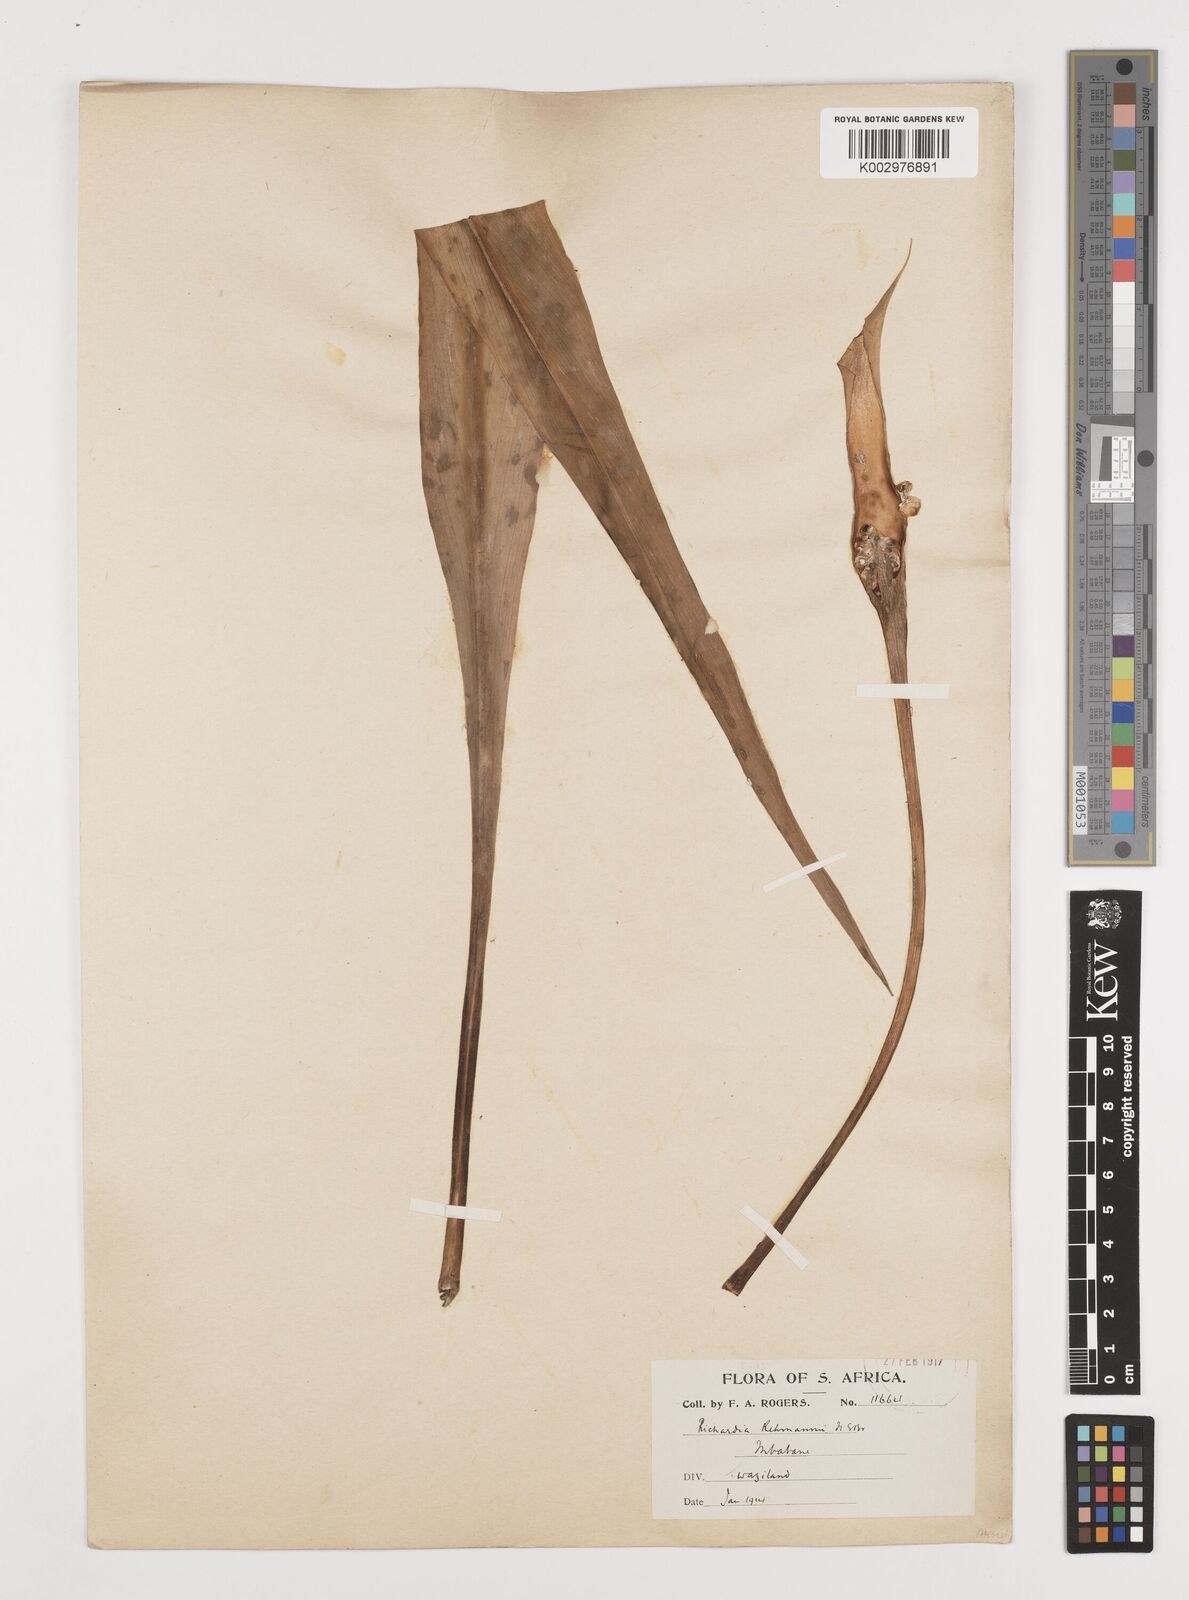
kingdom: Plantae
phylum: Tracheophyta
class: Liliopsida
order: Alismatales
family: Araceae
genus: Zantedeschia
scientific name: Zantedeschia rehmannii
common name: Red calla
